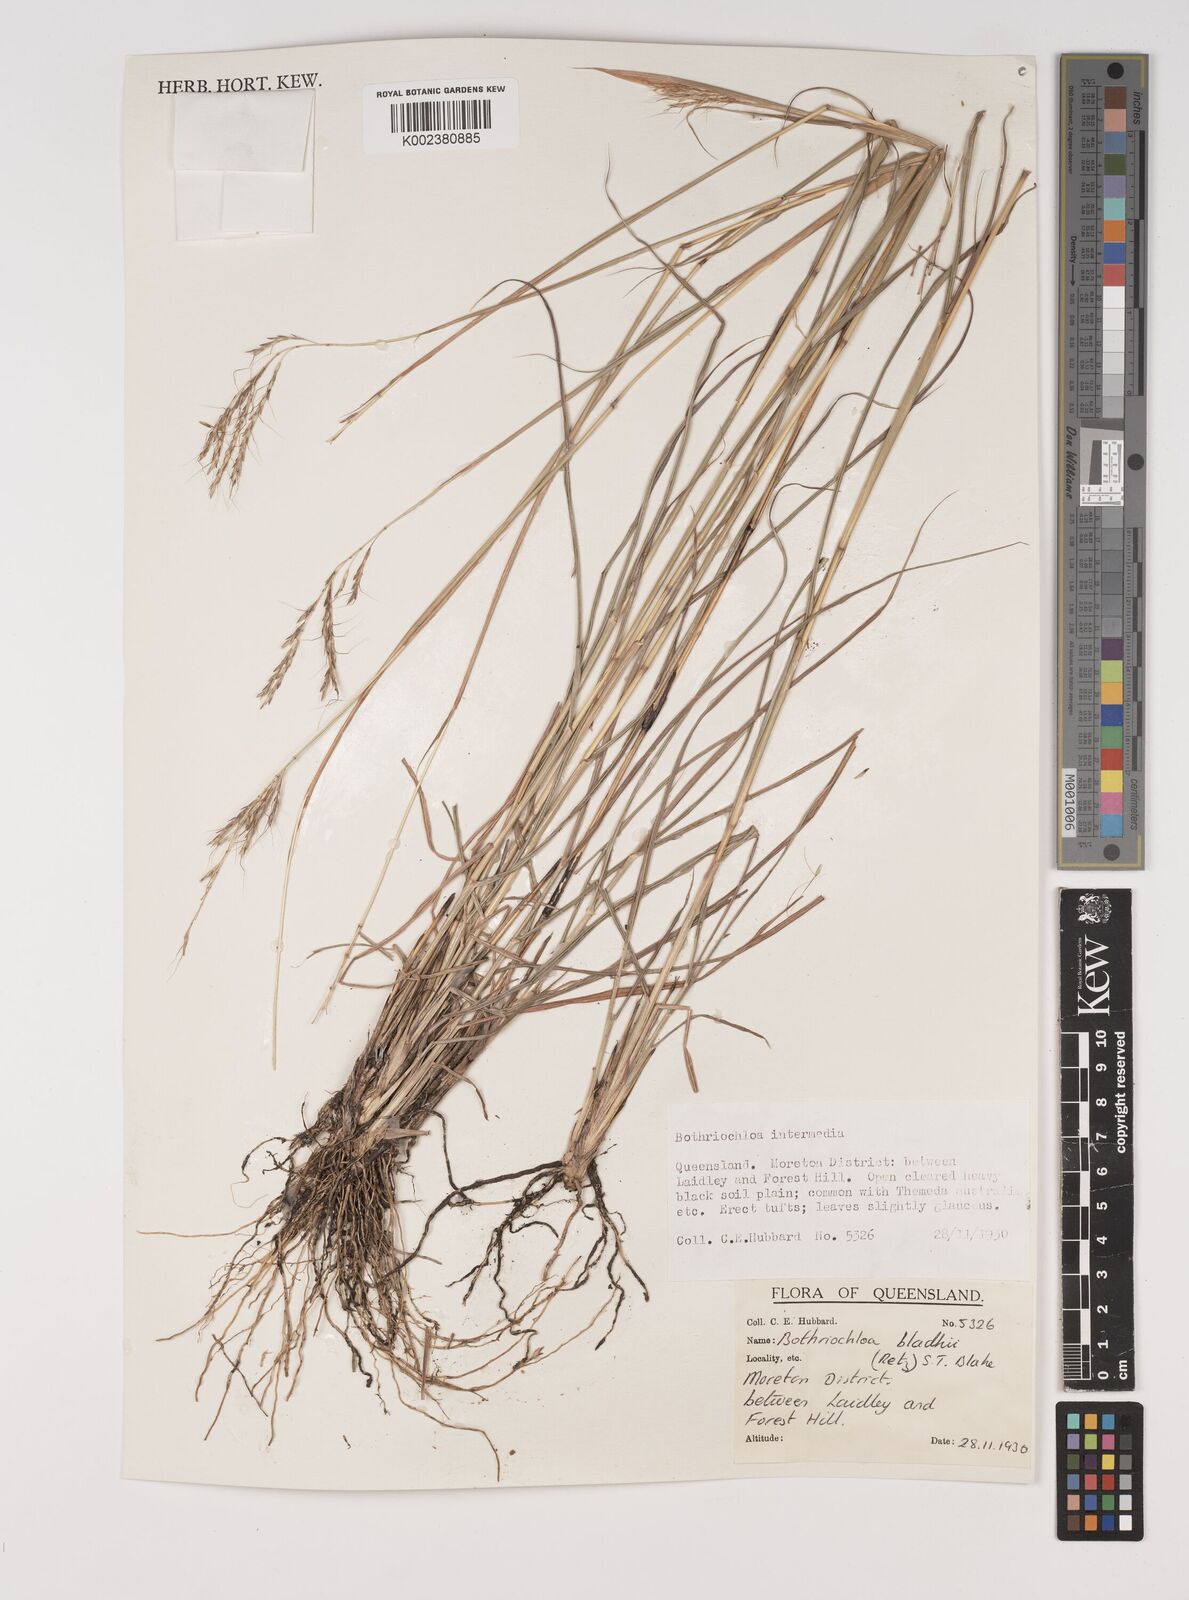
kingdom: Plantae
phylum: Tracheophyta
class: Liliopsida
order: Poales
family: Poaceae
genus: Bothriochloa
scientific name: Bothriochloa bladhii
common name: Caucasian bluestem
